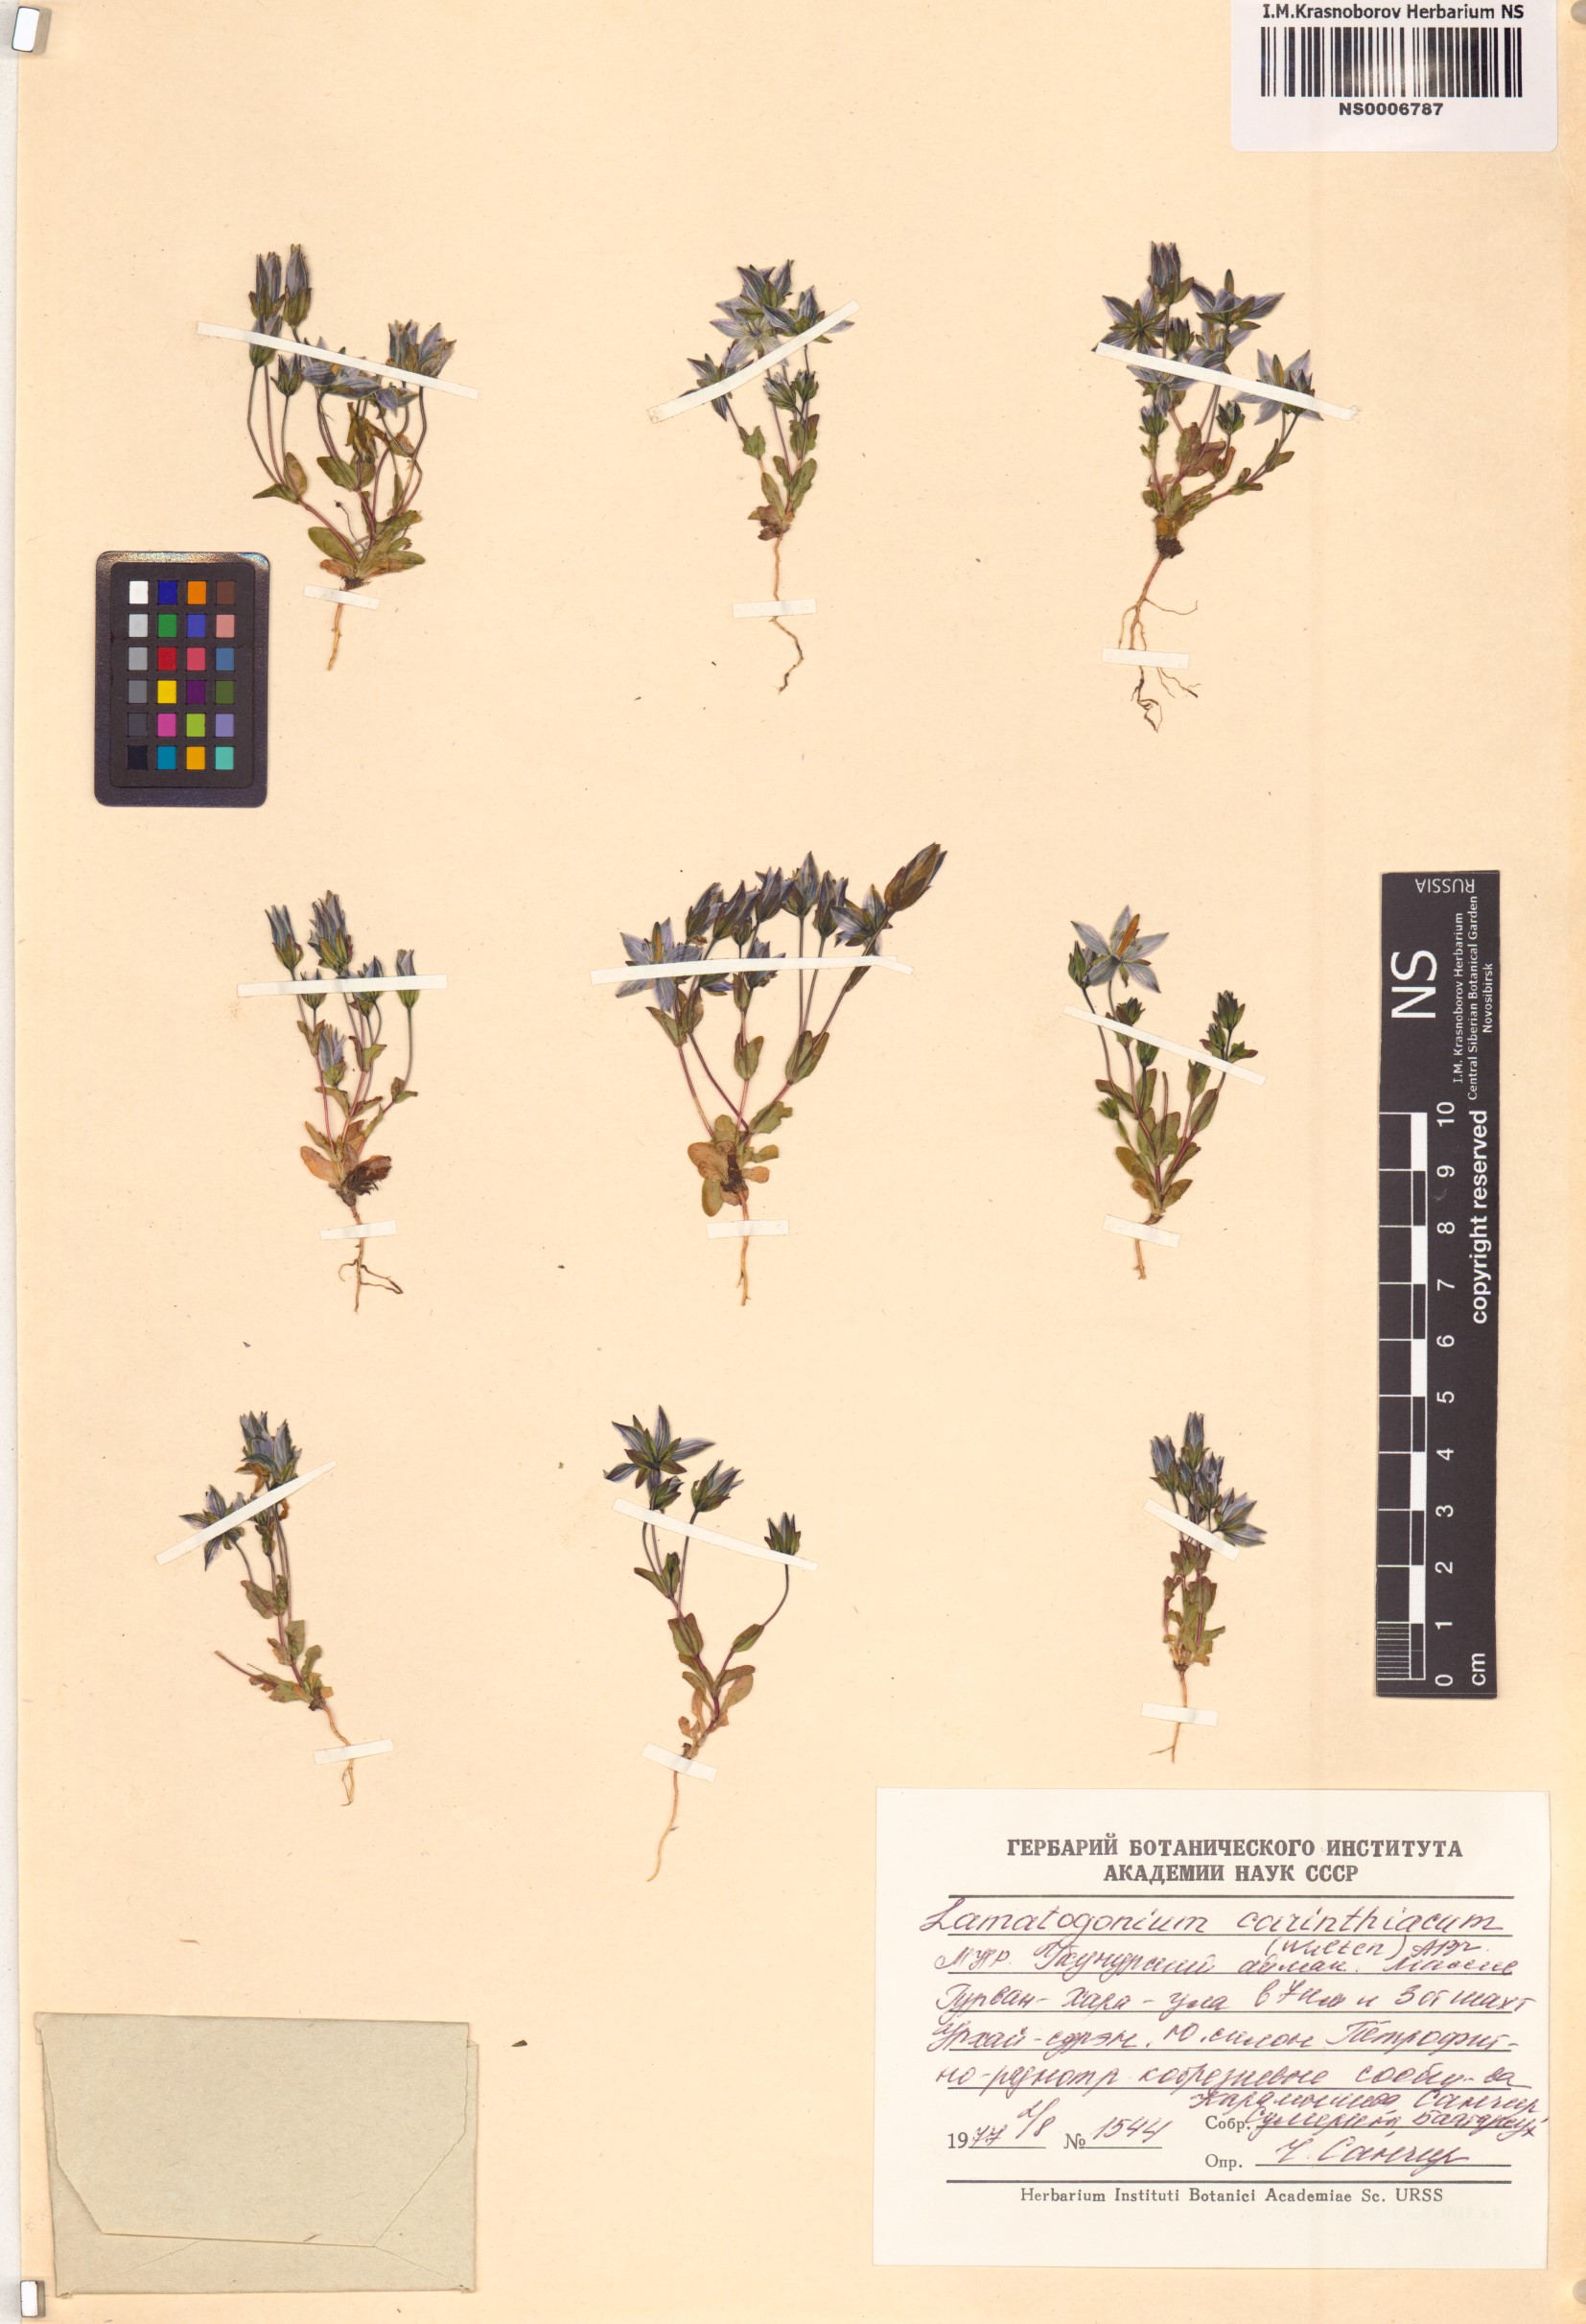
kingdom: Plantae
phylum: Tracheophyta
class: Magnoliopsida
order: Gentianales
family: Gentianaceae
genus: Lomatogonium
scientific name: Lomatogonium carinthiacum
